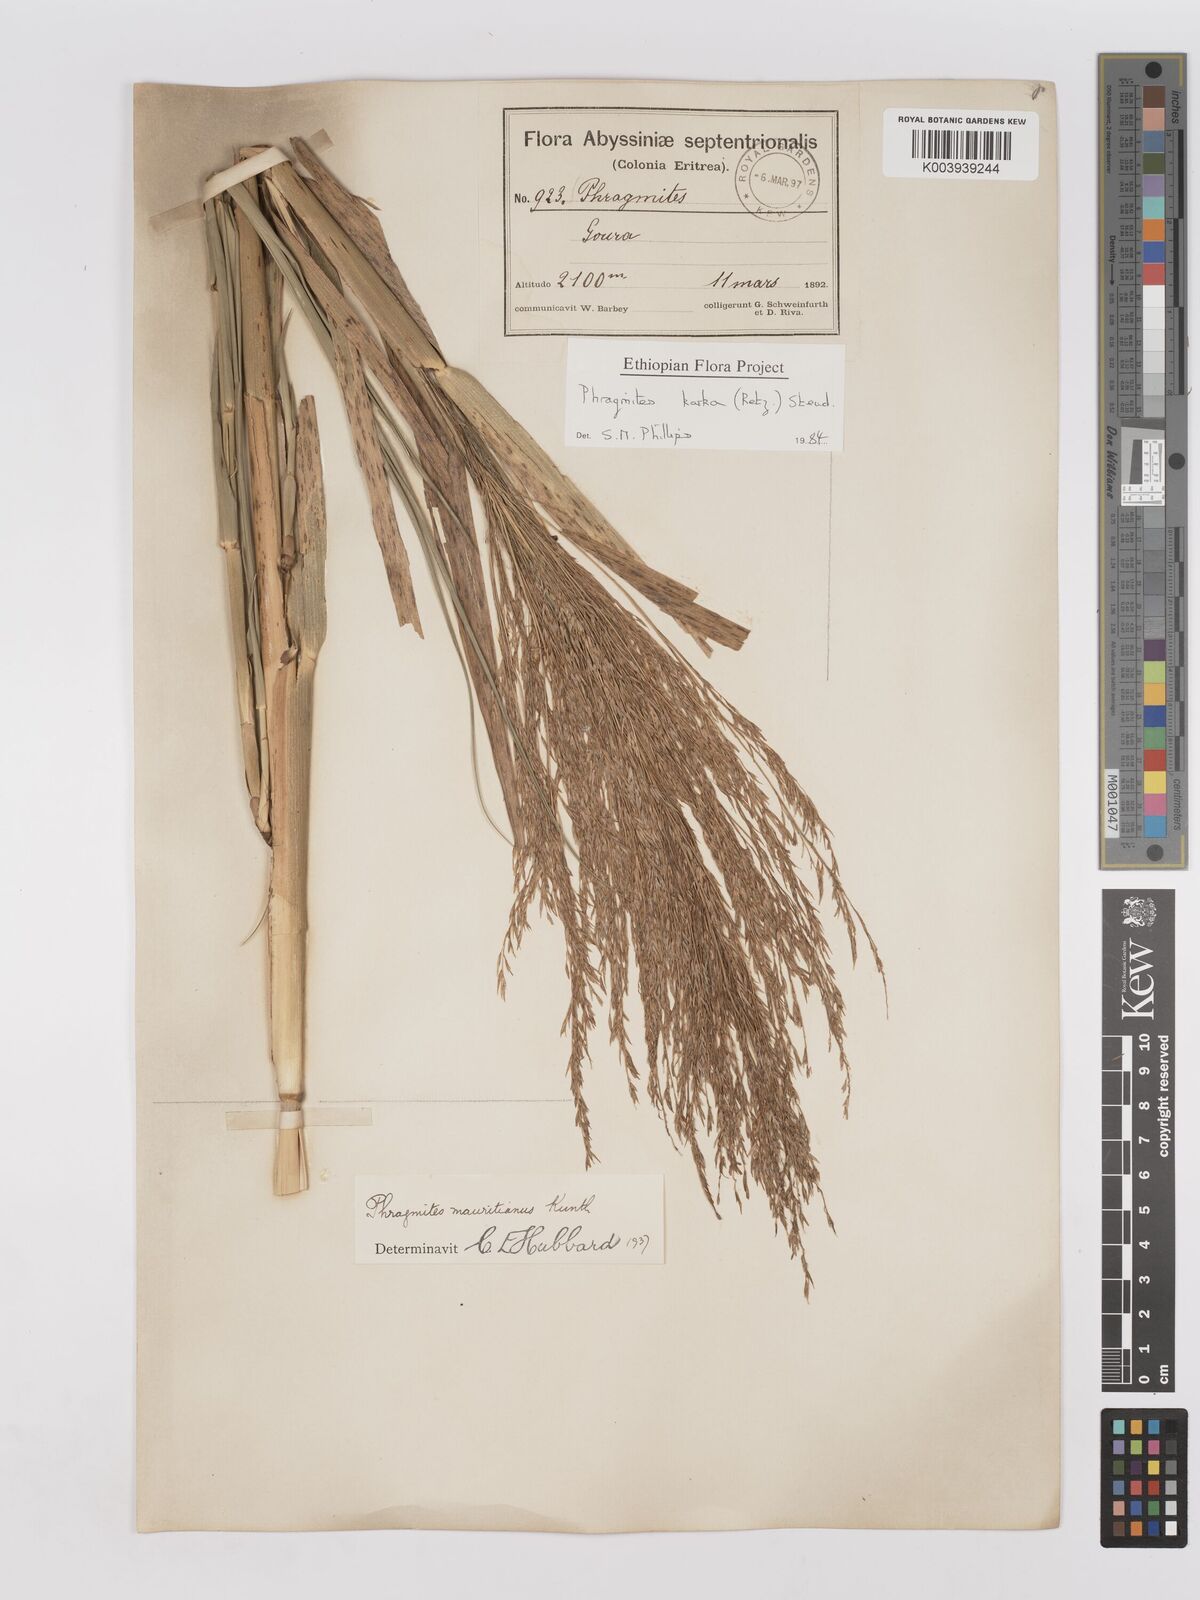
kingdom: Plantae
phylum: Tracheophyta
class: Liliopsida
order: Poales
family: Poaceae
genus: Phragmites
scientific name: Phragmites karka
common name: Tropical reed
